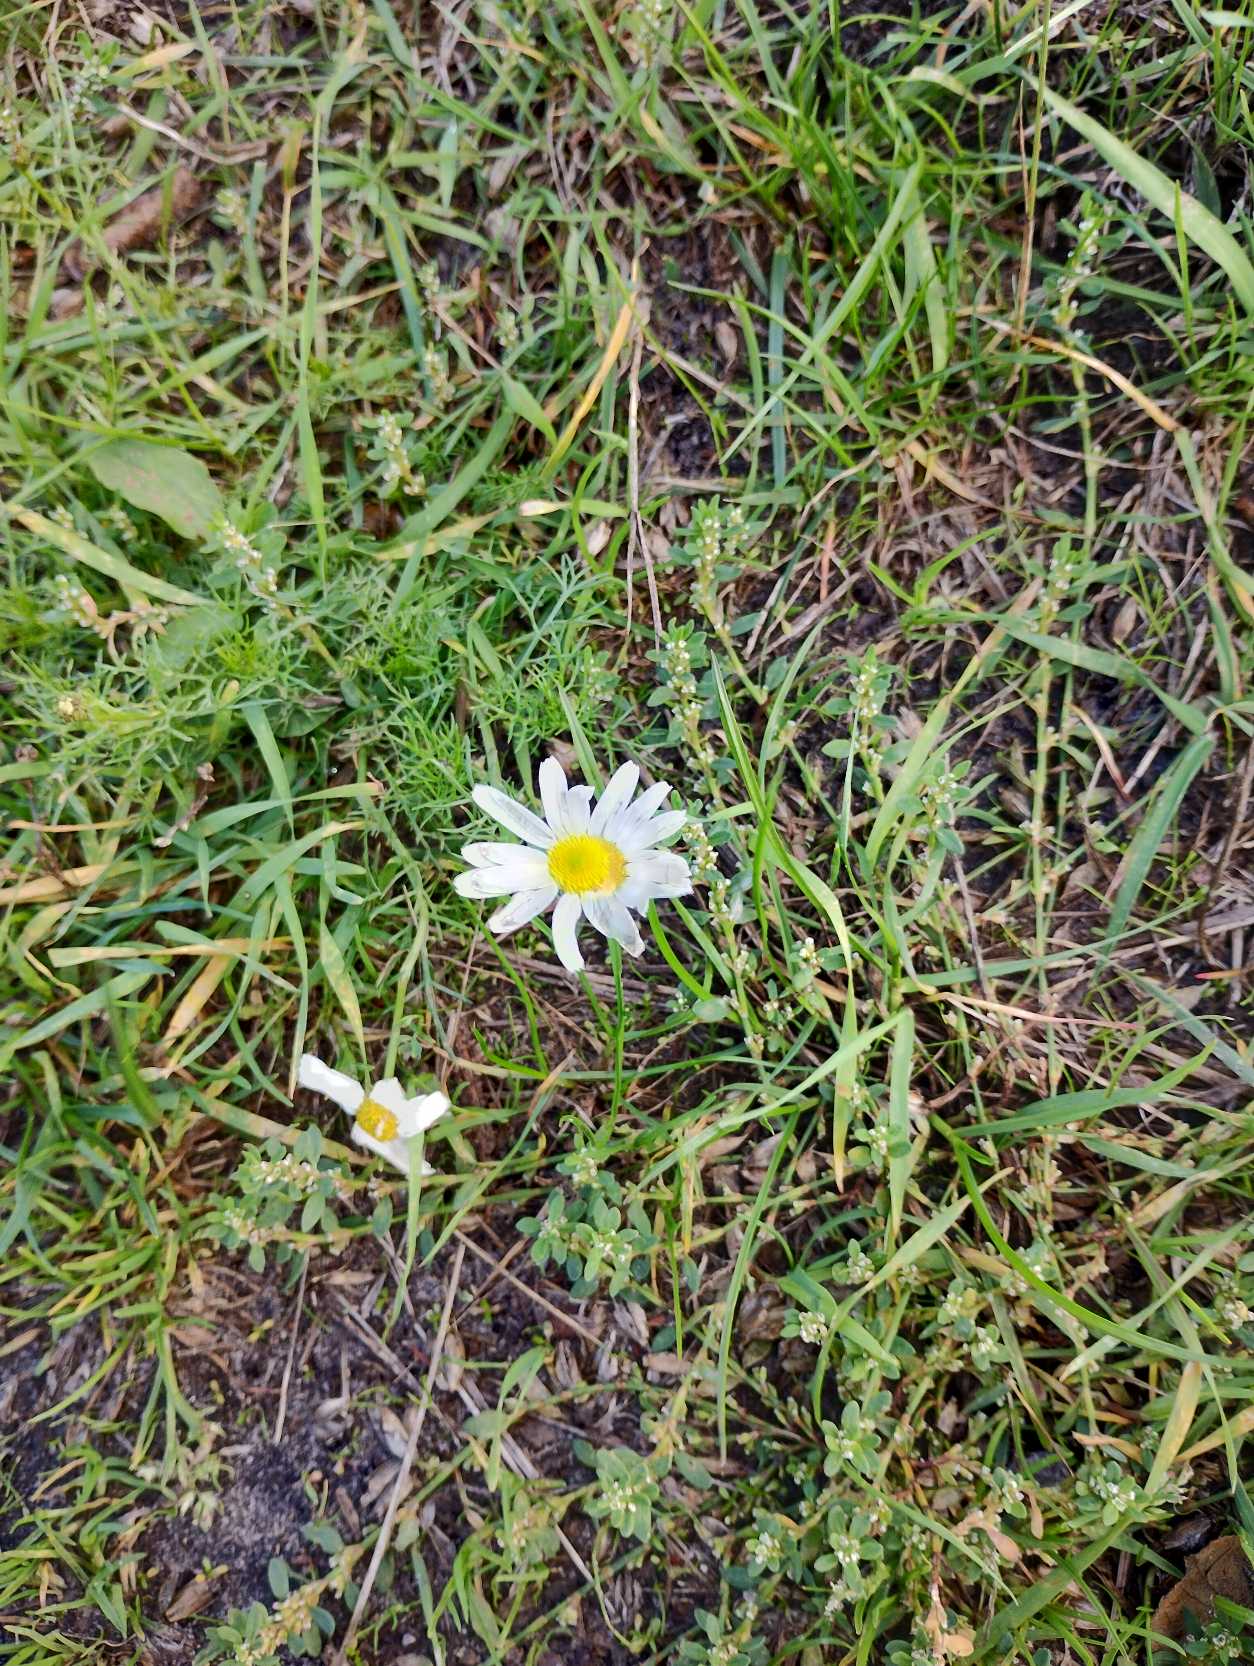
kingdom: Plantae
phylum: Tracheophyta
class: Magnoliopsida
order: Asterales
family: Asteraceae
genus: Tripleurospermum
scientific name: Tripleurospermum inodorum
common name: Lugtløs kamille
